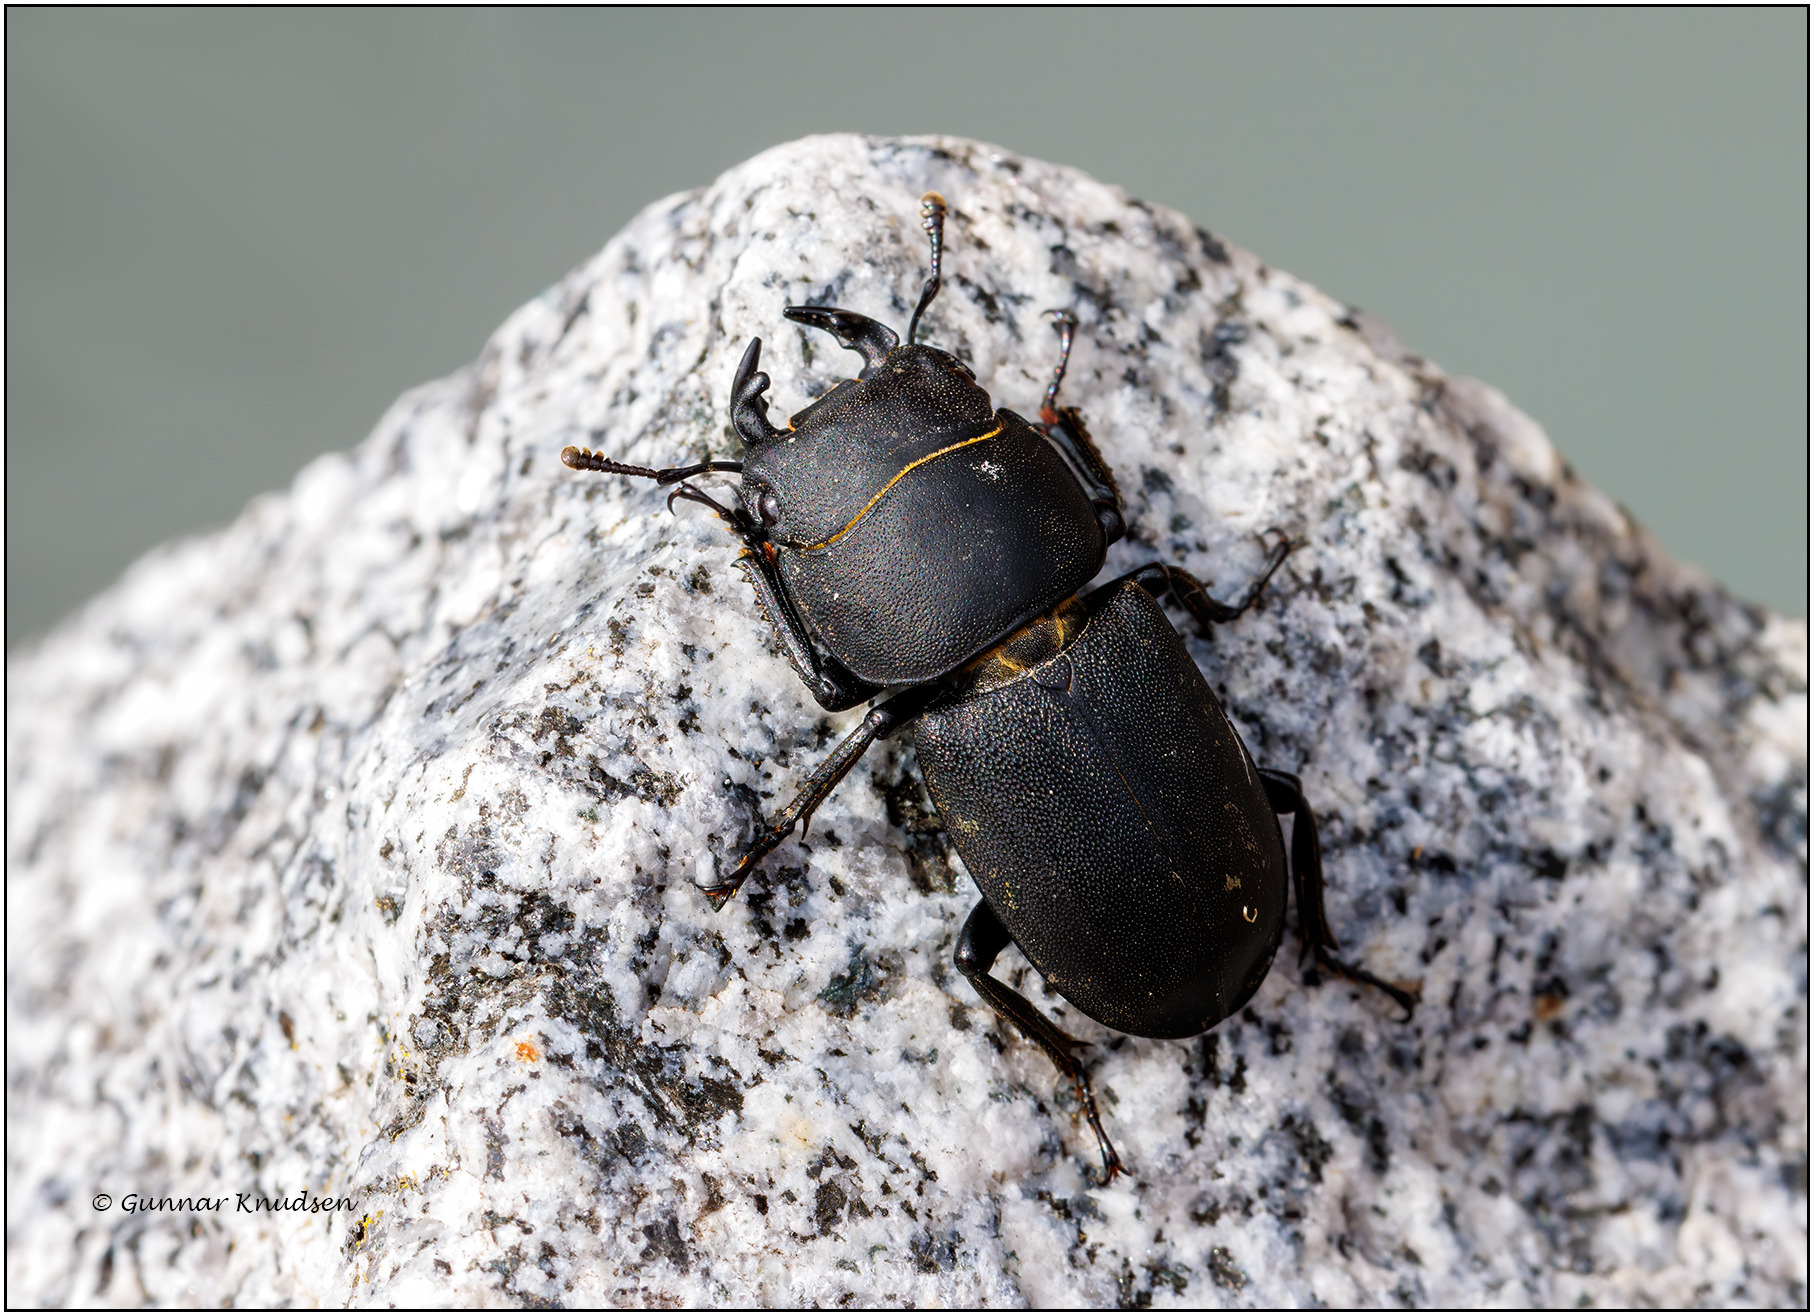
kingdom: Animalia
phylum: Arthropoda
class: Insecta
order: Coleoptera
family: Lucanidae
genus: Dorcus
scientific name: Dorcus parallelipipedus
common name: Bøghjort
